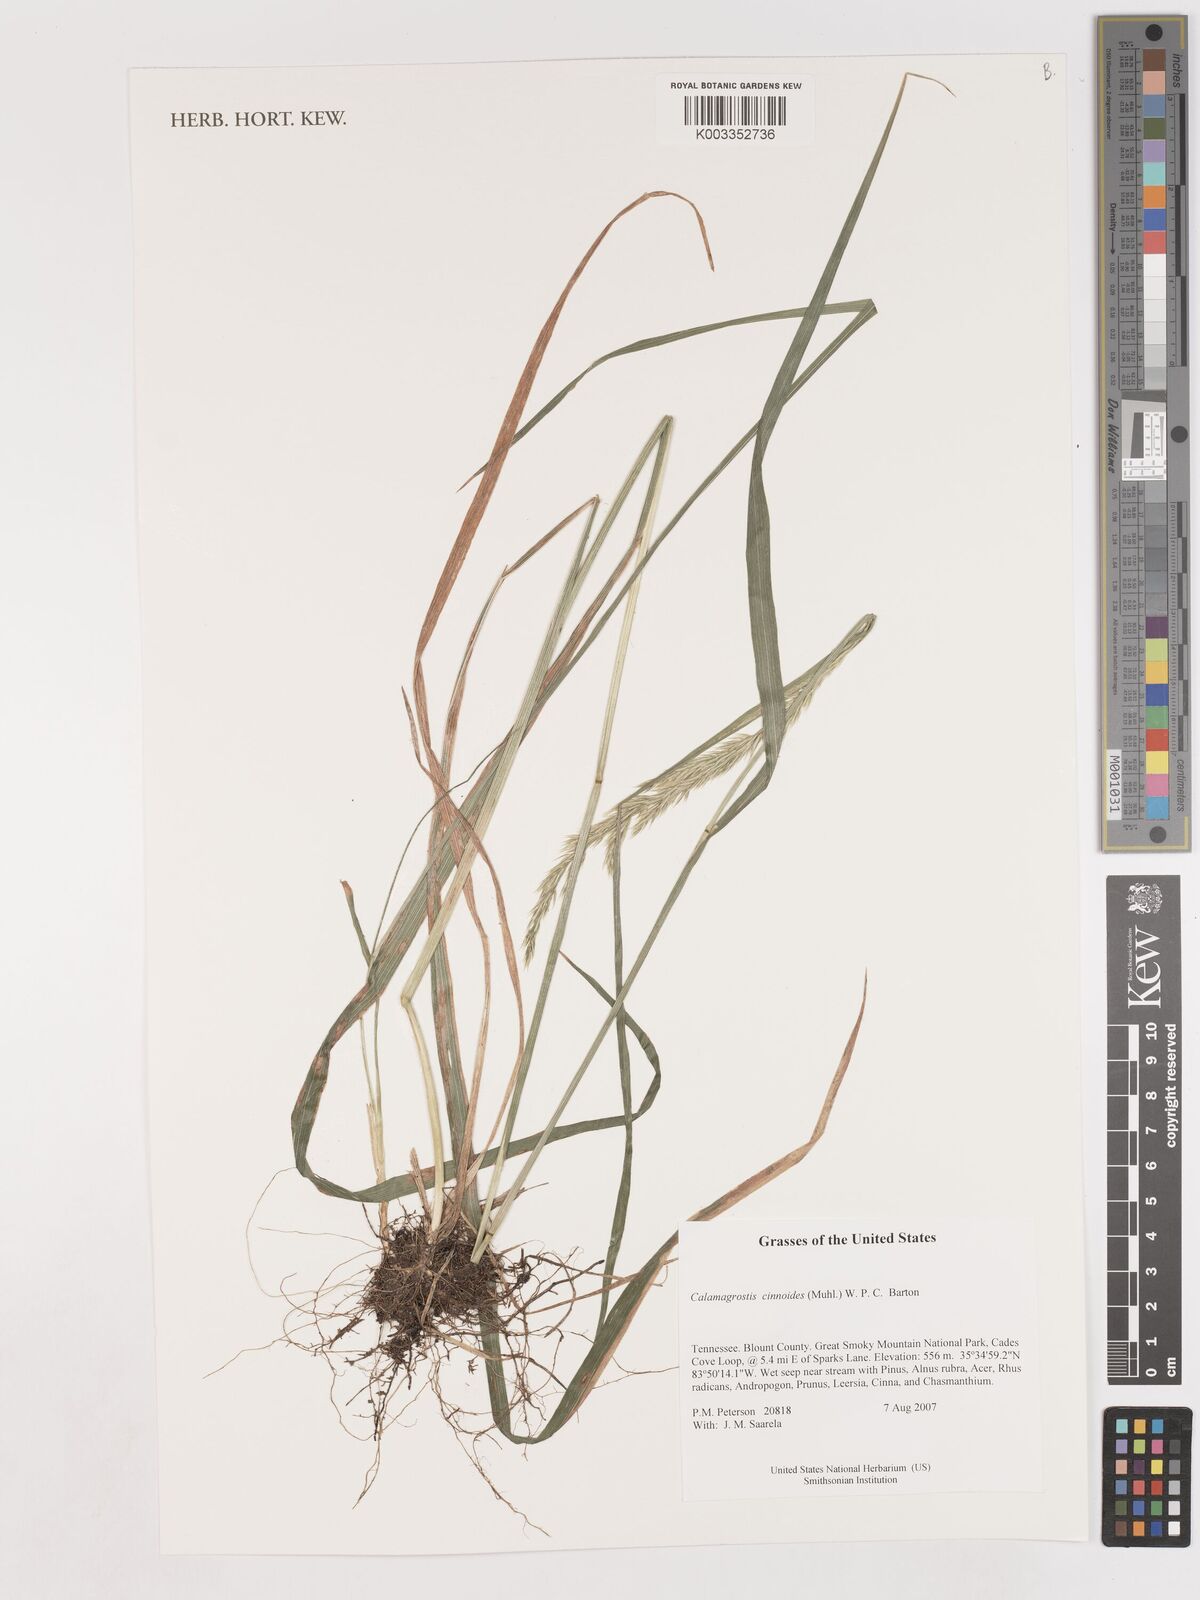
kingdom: Plantae
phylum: Tracheophyta
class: Liliopsida
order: Poales
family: Poaceae
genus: Calamagrostis
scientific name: Calamagrostis canadensis
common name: Canada bluejoint
